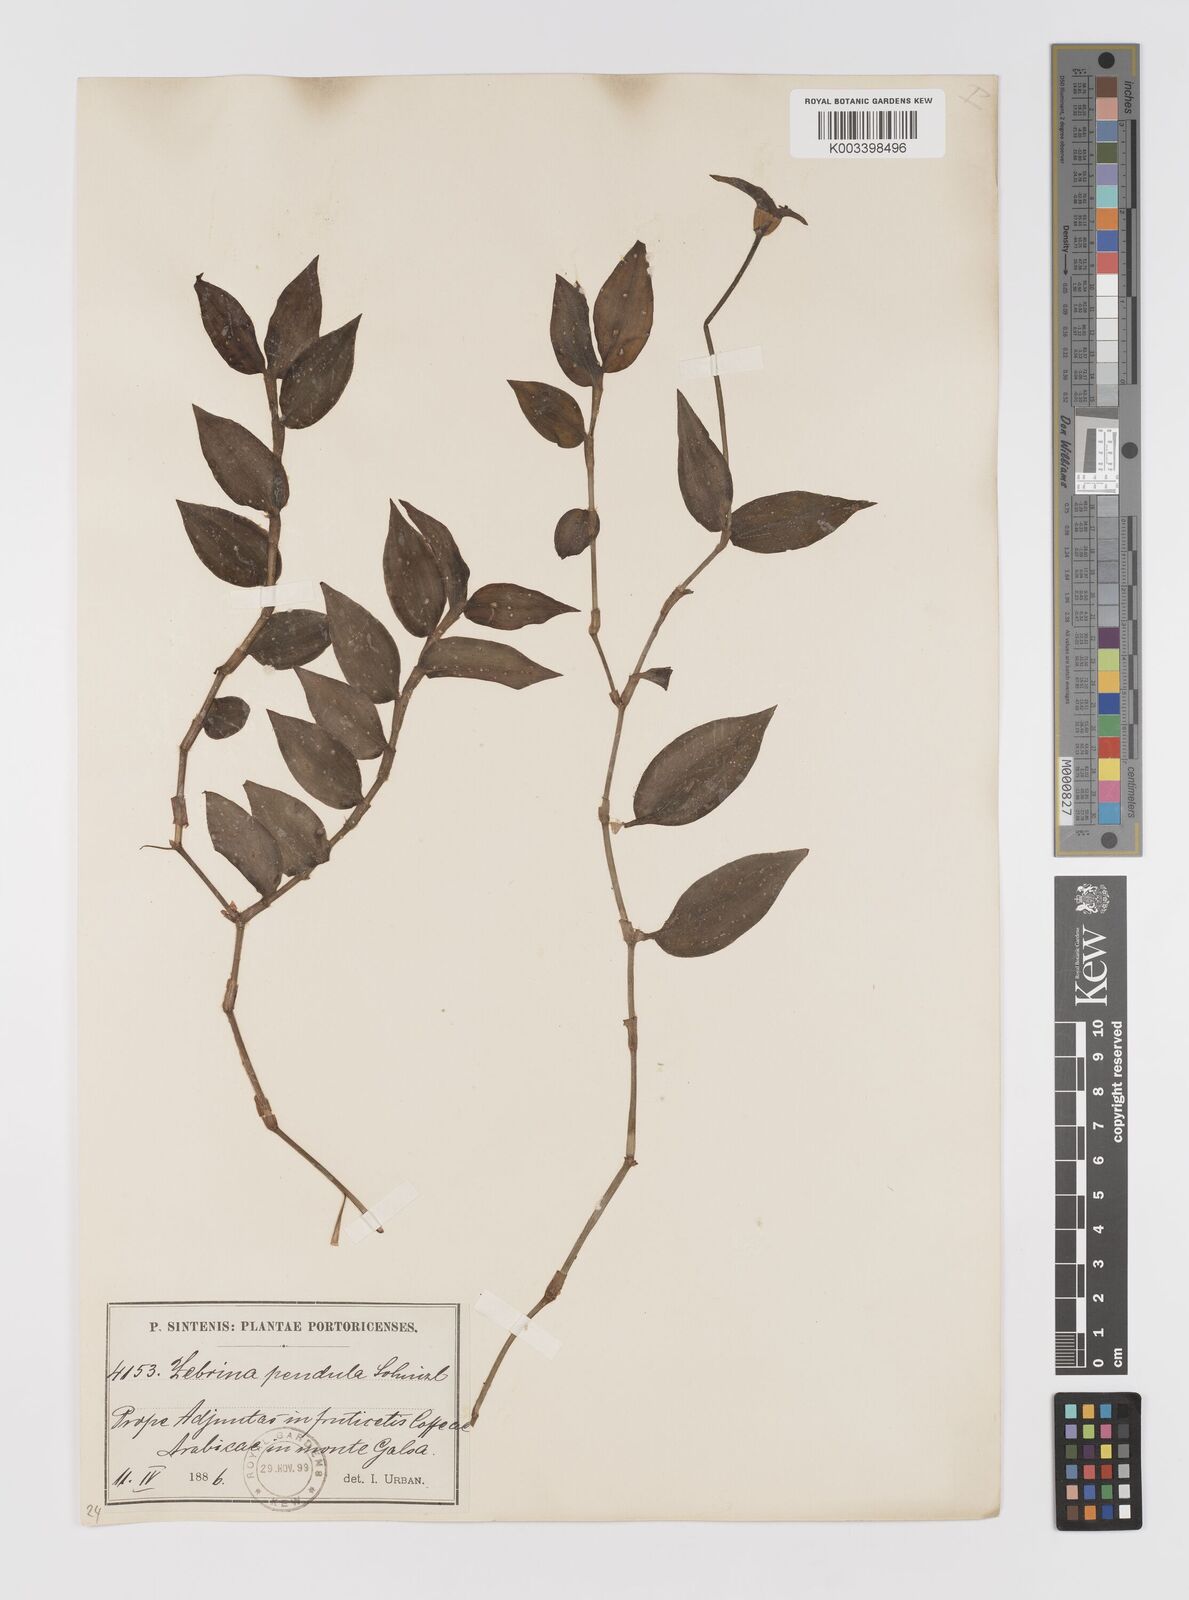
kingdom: Plantae
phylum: Tracheophyta
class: Liliopsida
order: Commelinales
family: Commelinaceae
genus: Tradescantia
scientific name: Tradescantia zebrina
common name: Inchplant
